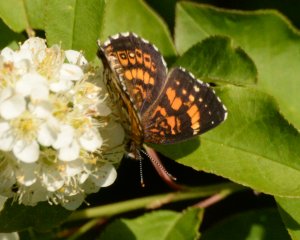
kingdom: Animalia
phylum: Arthropoda
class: Insecta
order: Lepidoptera
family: Nymphalidae
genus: Chlosyne
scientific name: Chlosyne nycteis
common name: Silvery Checkerspot
